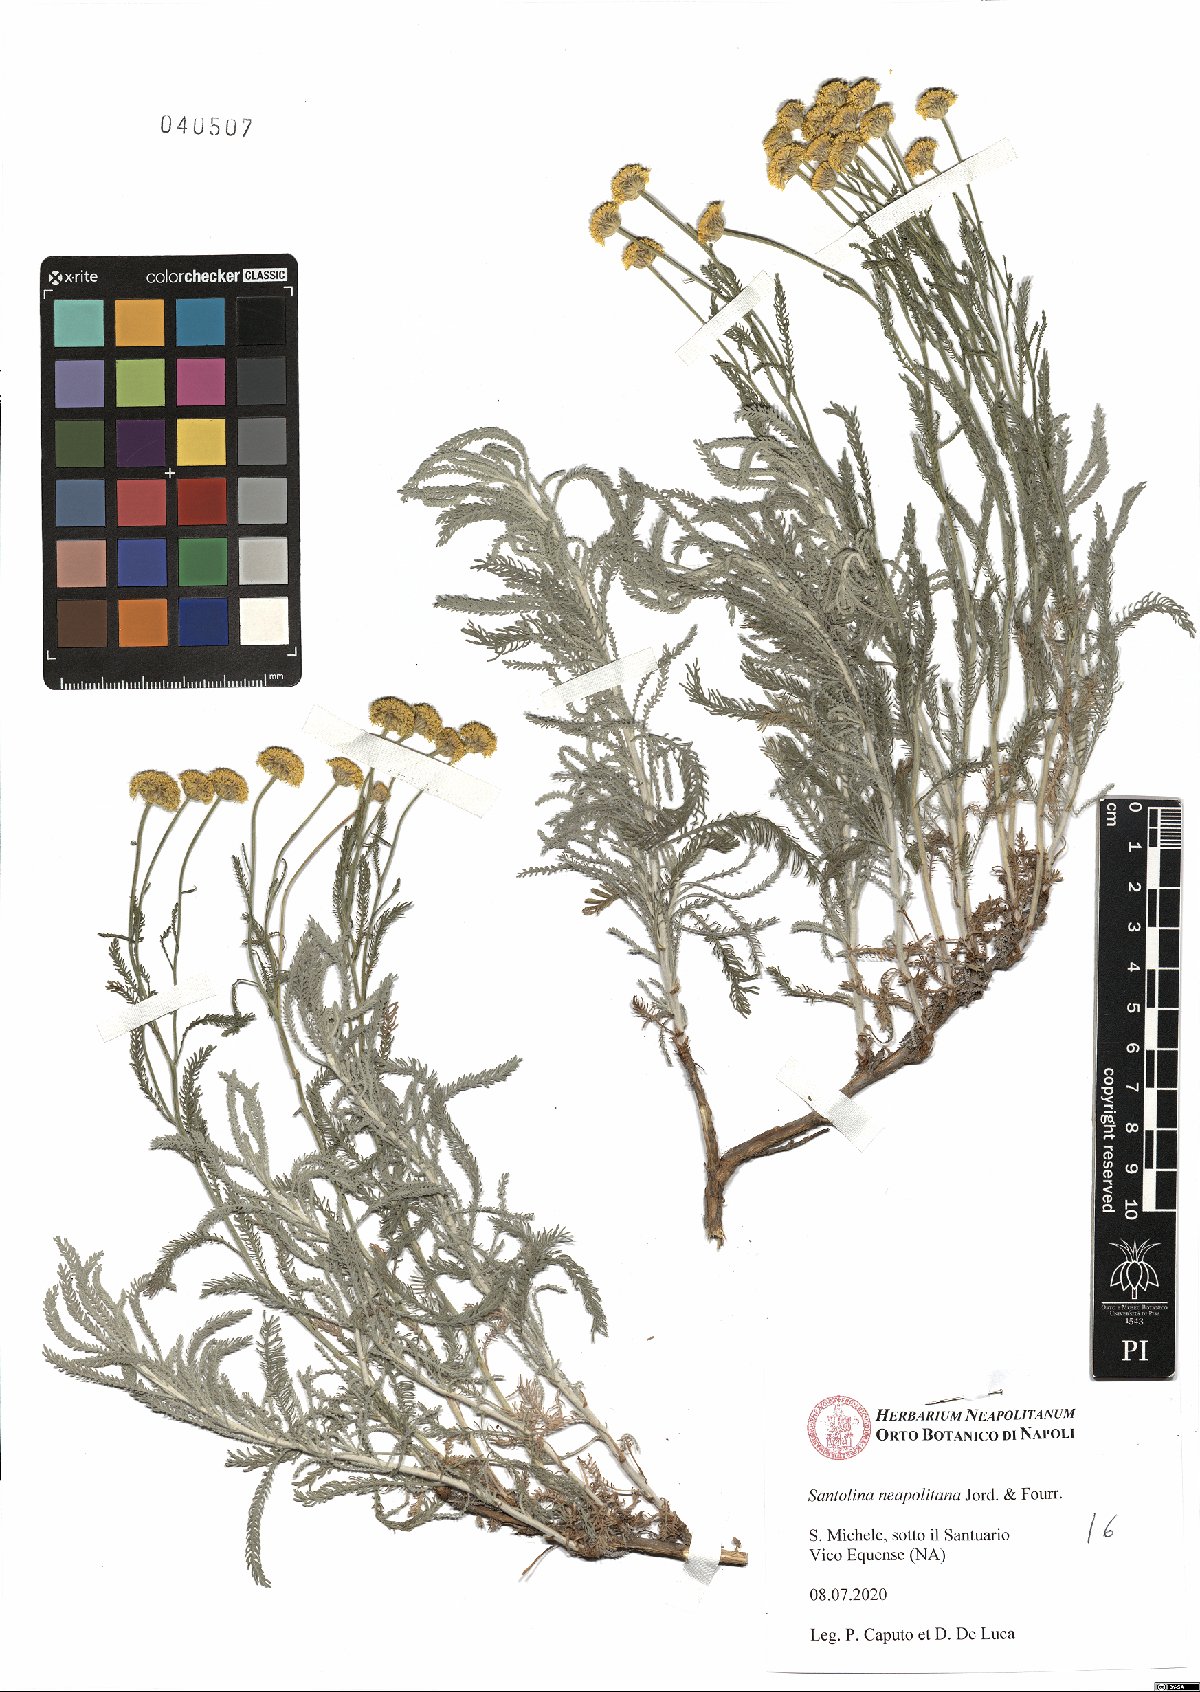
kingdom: Plantae
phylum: Tracheophyta
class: Magnoliopsida
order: Asterales
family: Asteraceae
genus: Santolina
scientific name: Santolina neapolitana
